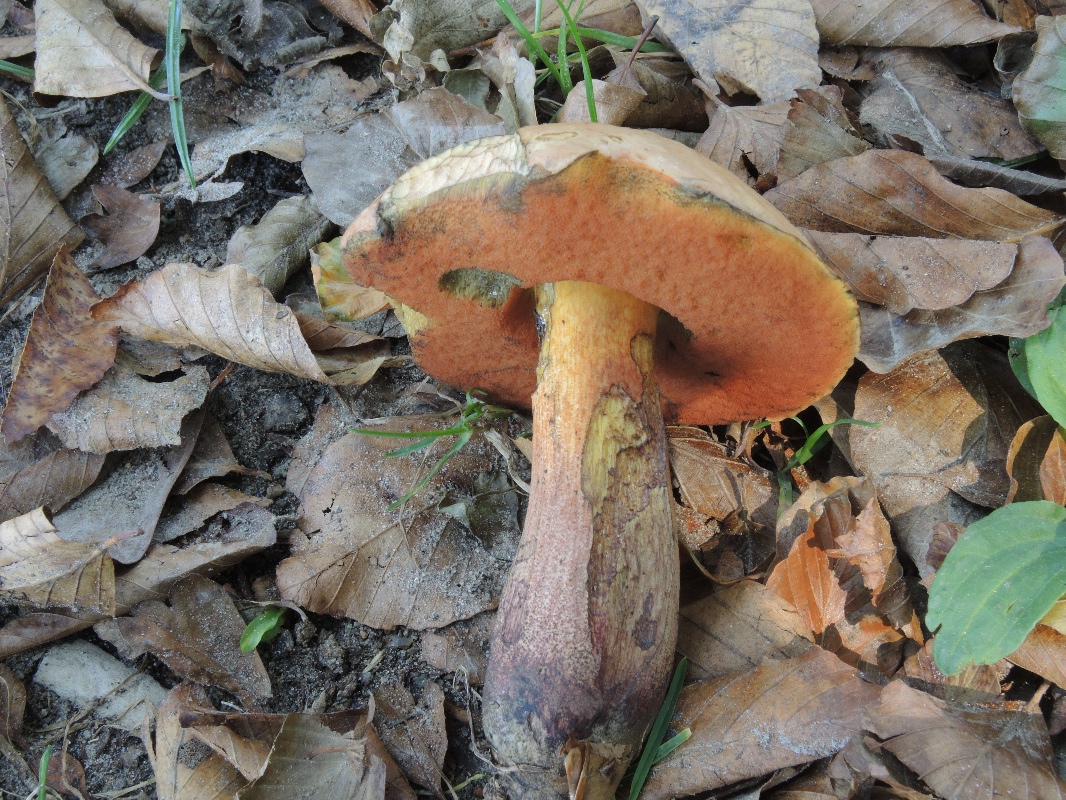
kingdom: Fungi
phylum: Basidiomycota
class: Agaricomycetes
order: Boletales
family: Boletaceae
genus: Suillellus
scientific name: Suillellus
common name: indigorørhat
